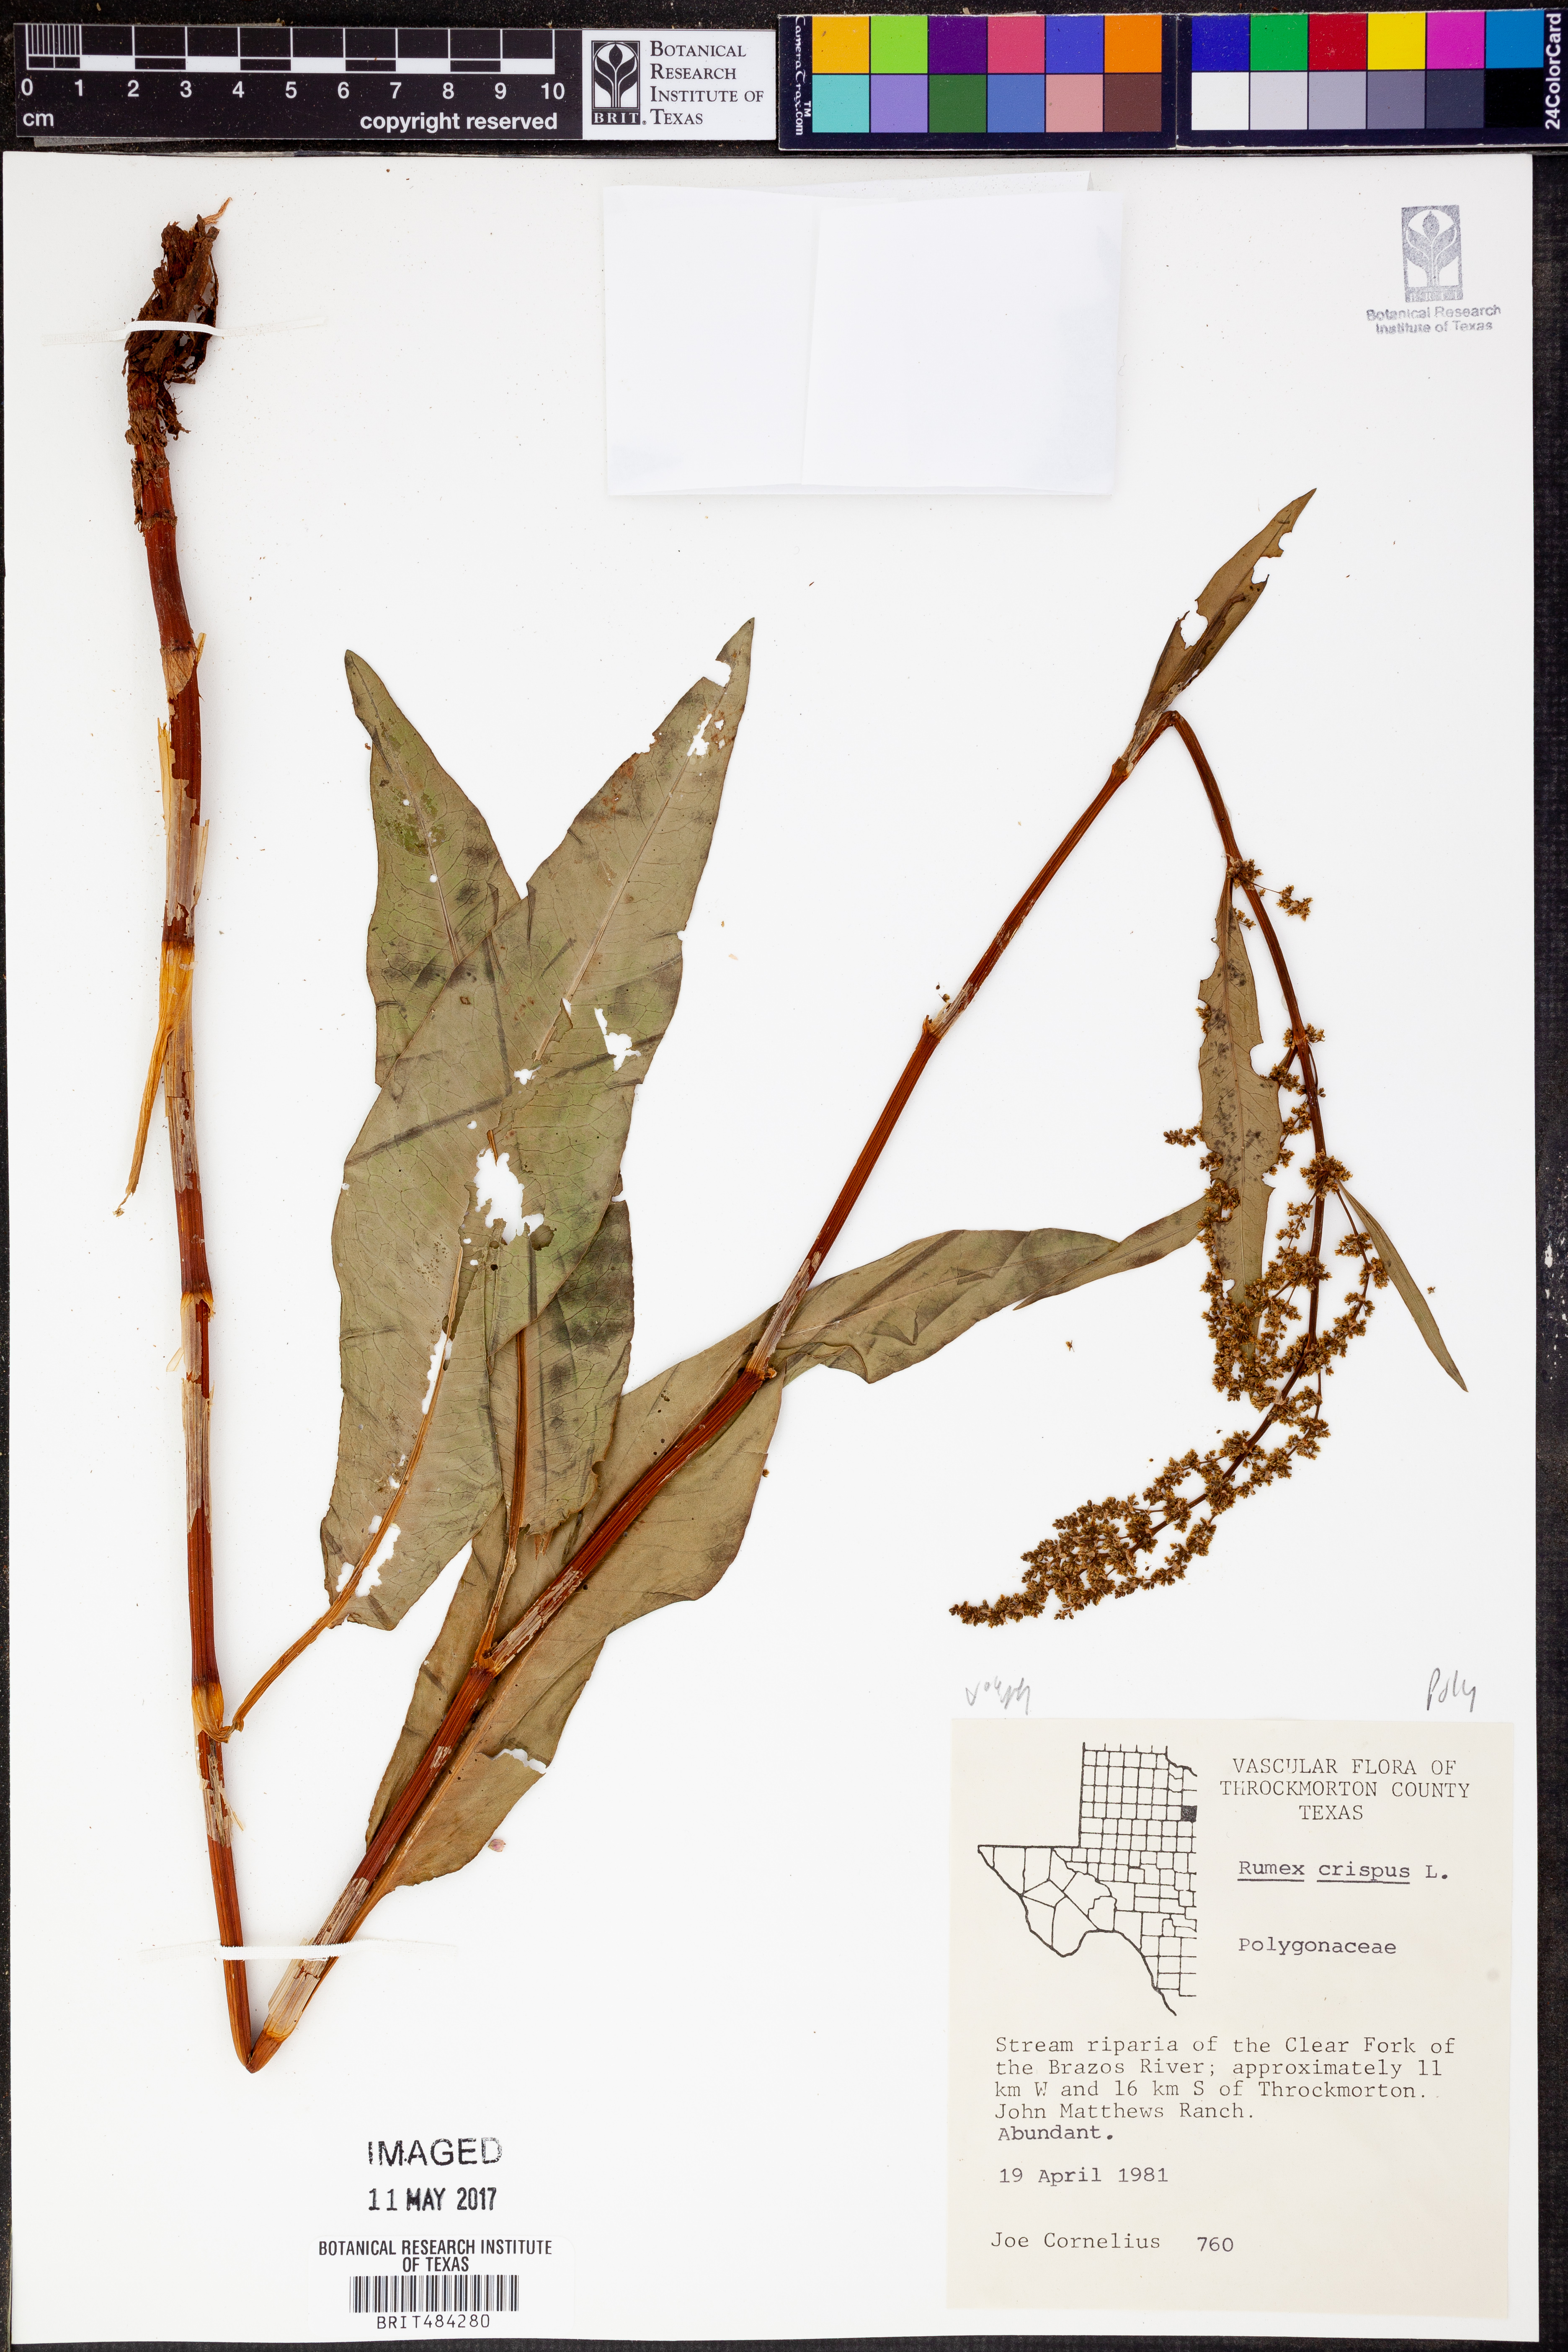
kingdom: Plantae
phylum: Tracheophyta
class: Magnoliopsida
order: Caryophyllales
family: Polygonaceae
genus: Rumex
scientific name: Rumex crispus
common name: Curled dock
